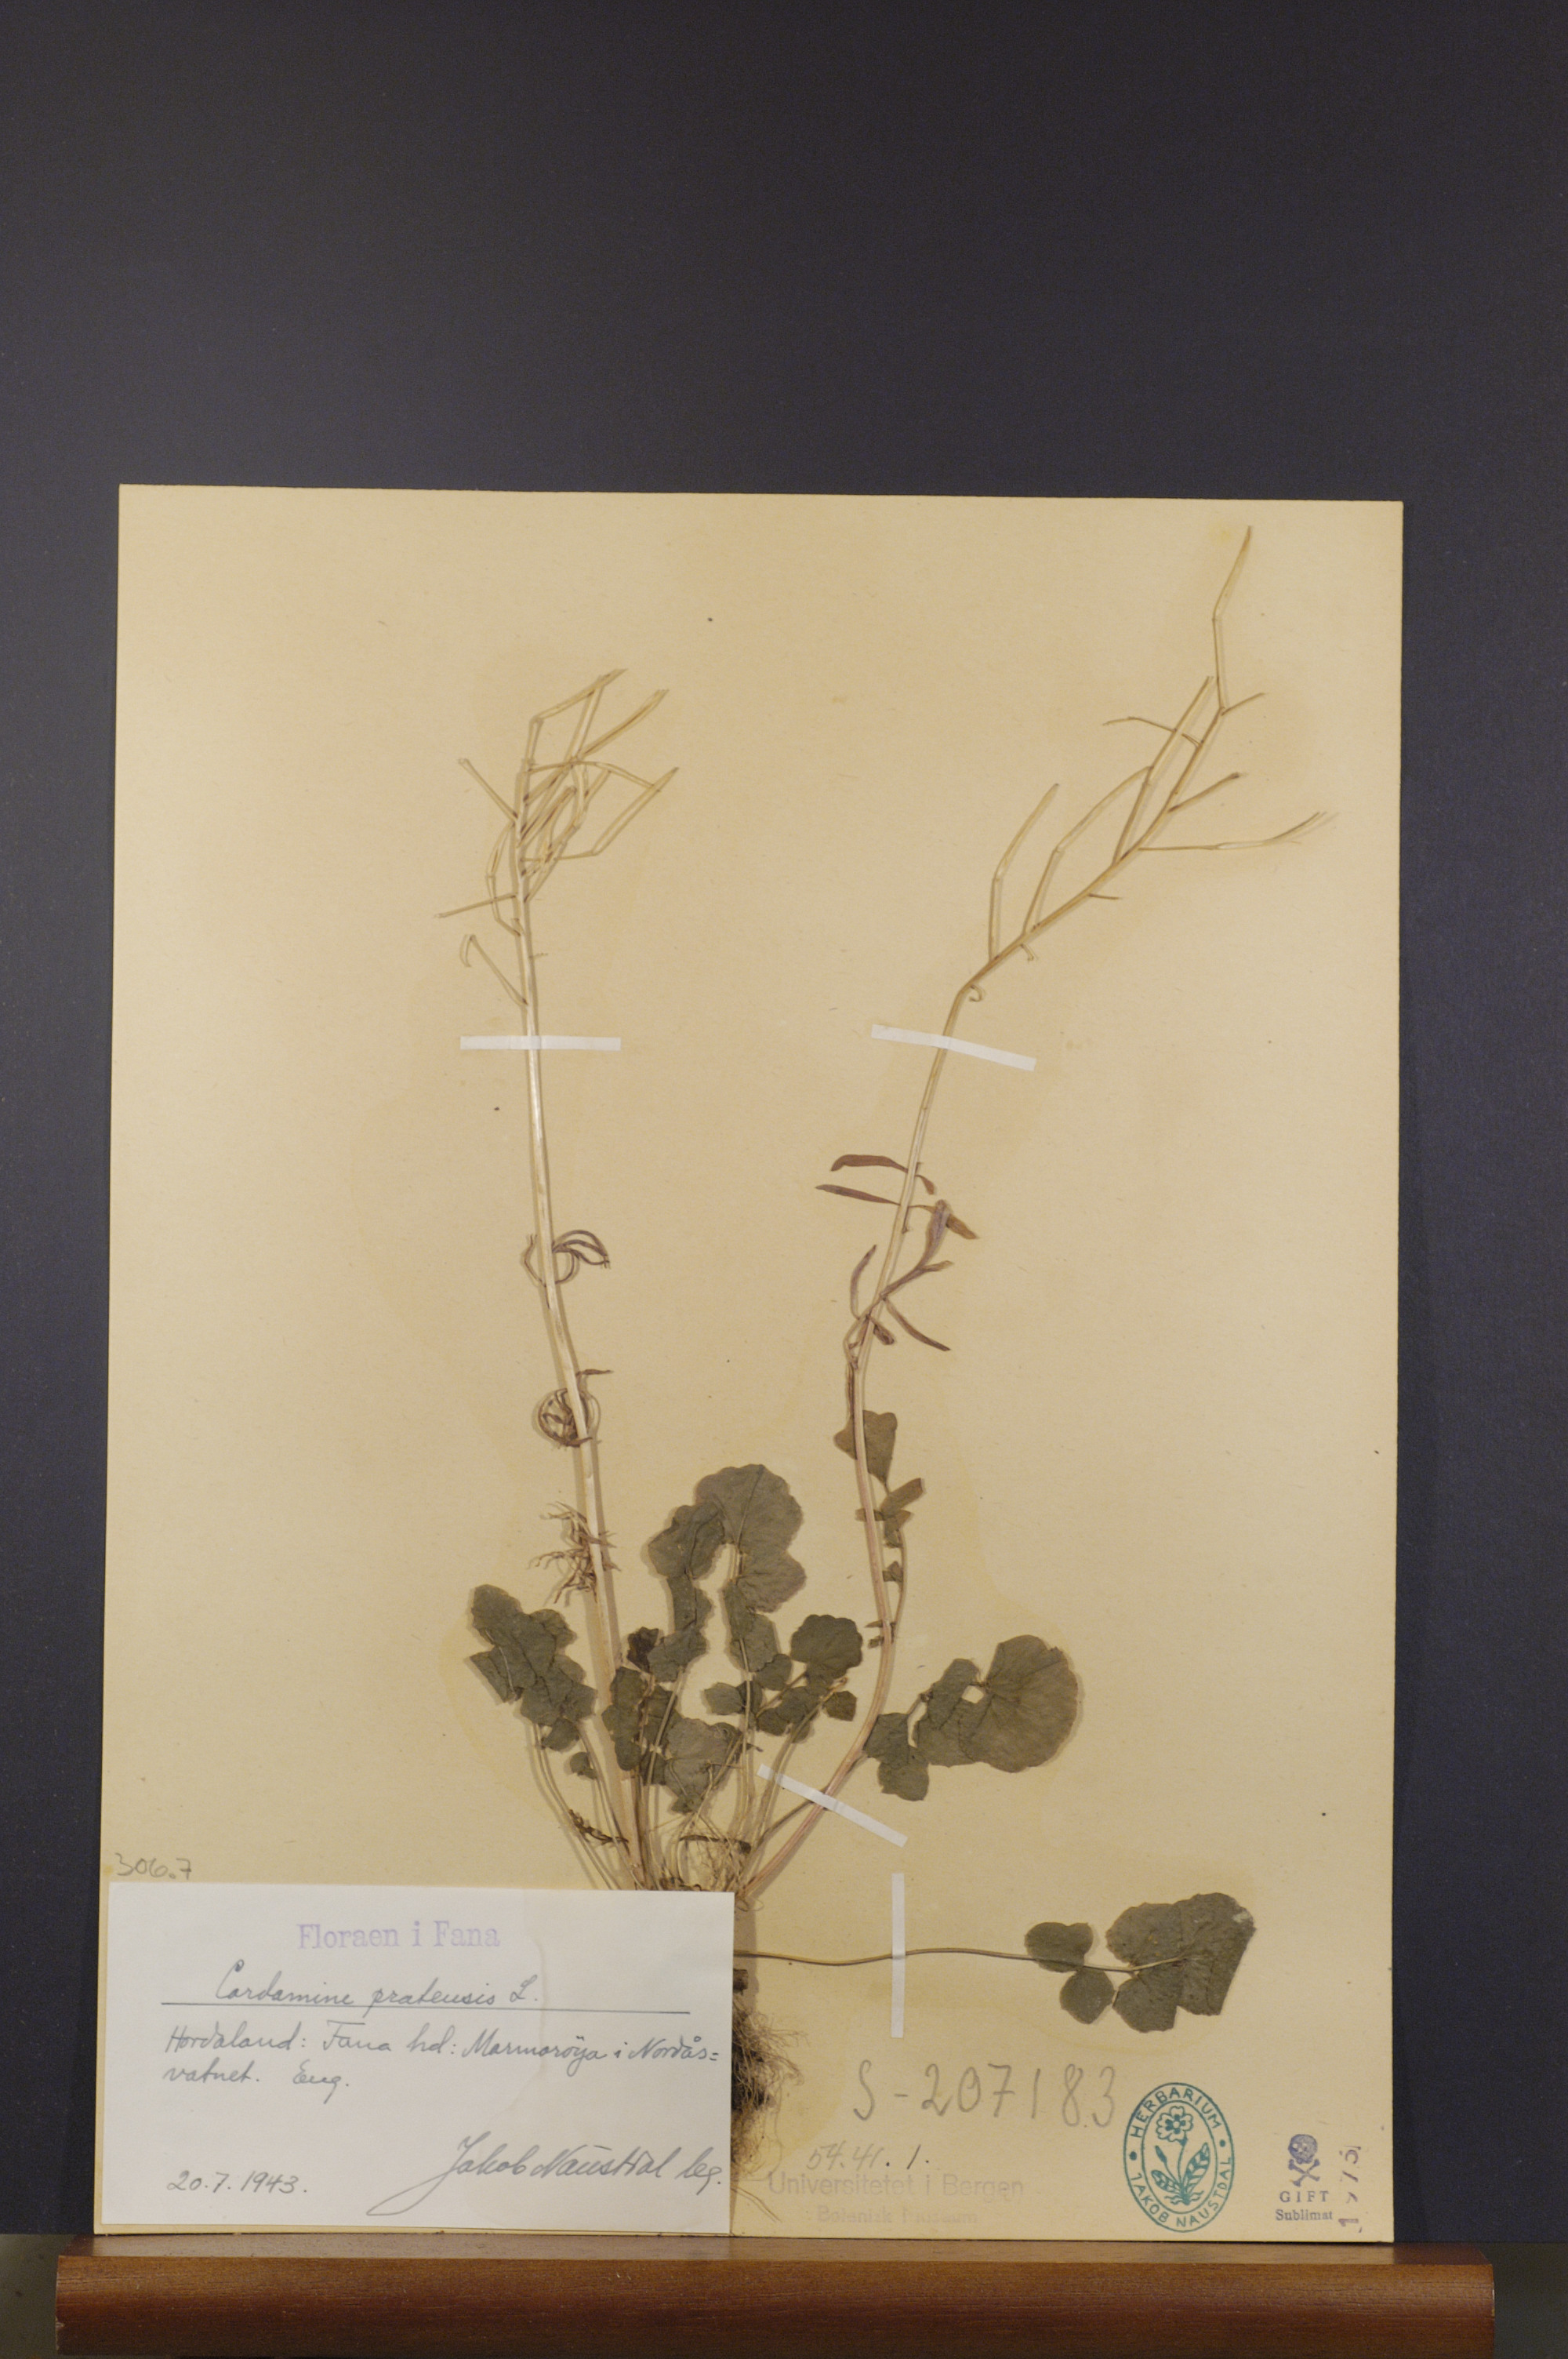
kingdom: Plantae
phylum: Tracheophyta
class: Magnoliopsida
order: Brassicales
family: Brassicaceae
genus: Cardamine
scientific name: Cardamine pratensis
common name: Cuckoo flower
